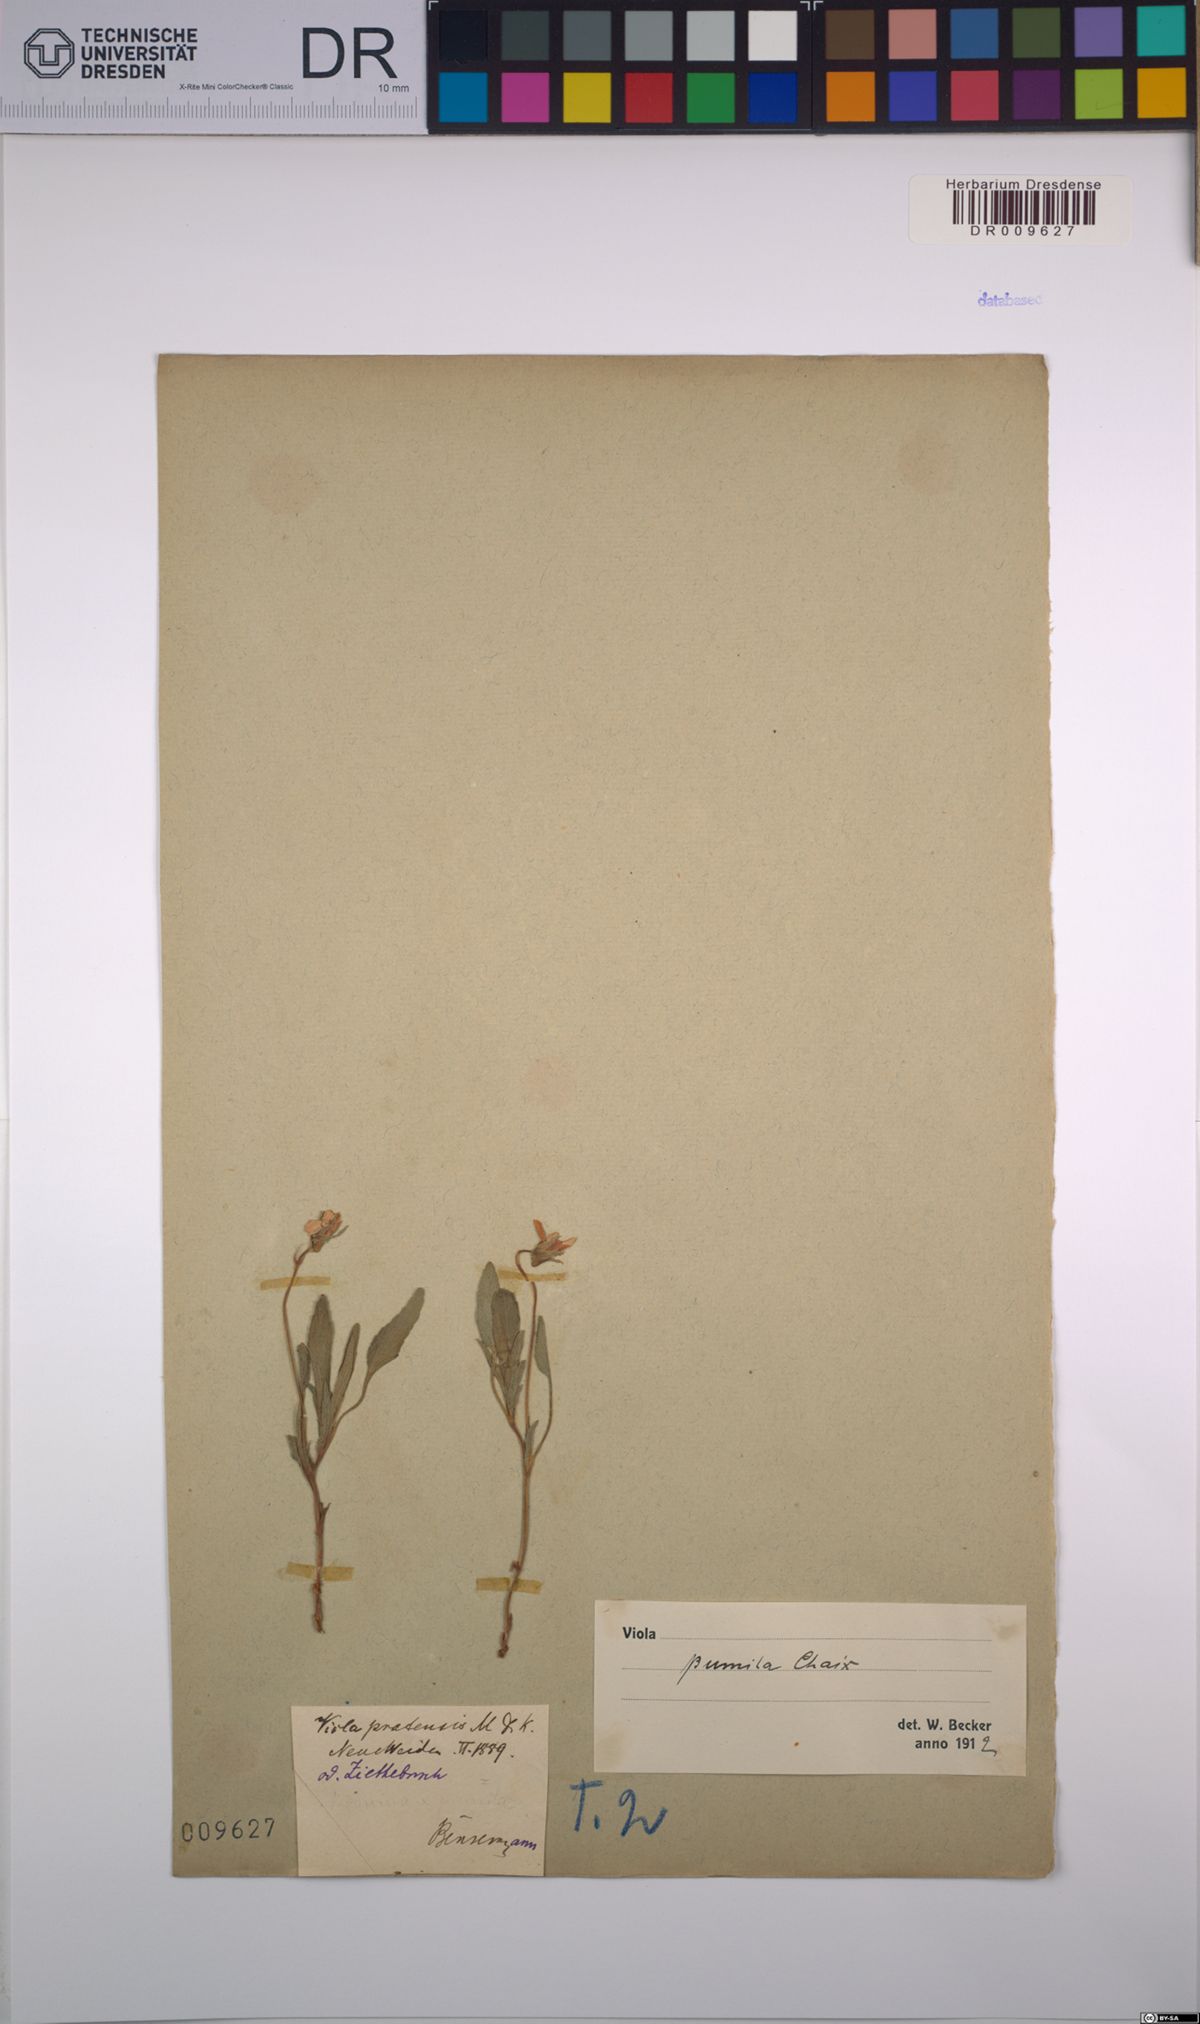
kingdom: Plantae
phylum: Tracheophyta
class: Magnoliopsida
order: Malpighiales
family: Violaceae
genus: Viola
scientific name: Viola pumila
